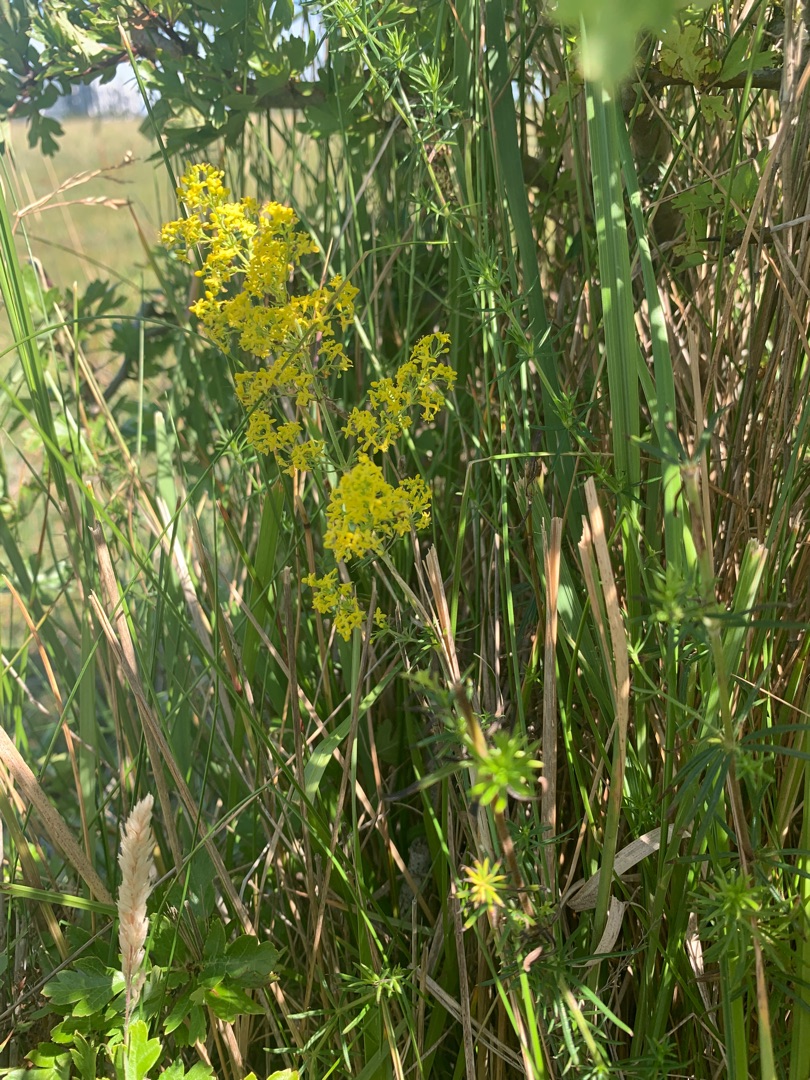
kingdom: Plantae
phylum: Tracheophyta
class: Magnoliopsida
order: Gentianales
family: Rubiaceae
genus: Galium
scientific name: Galium verum
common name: Gul snerre
